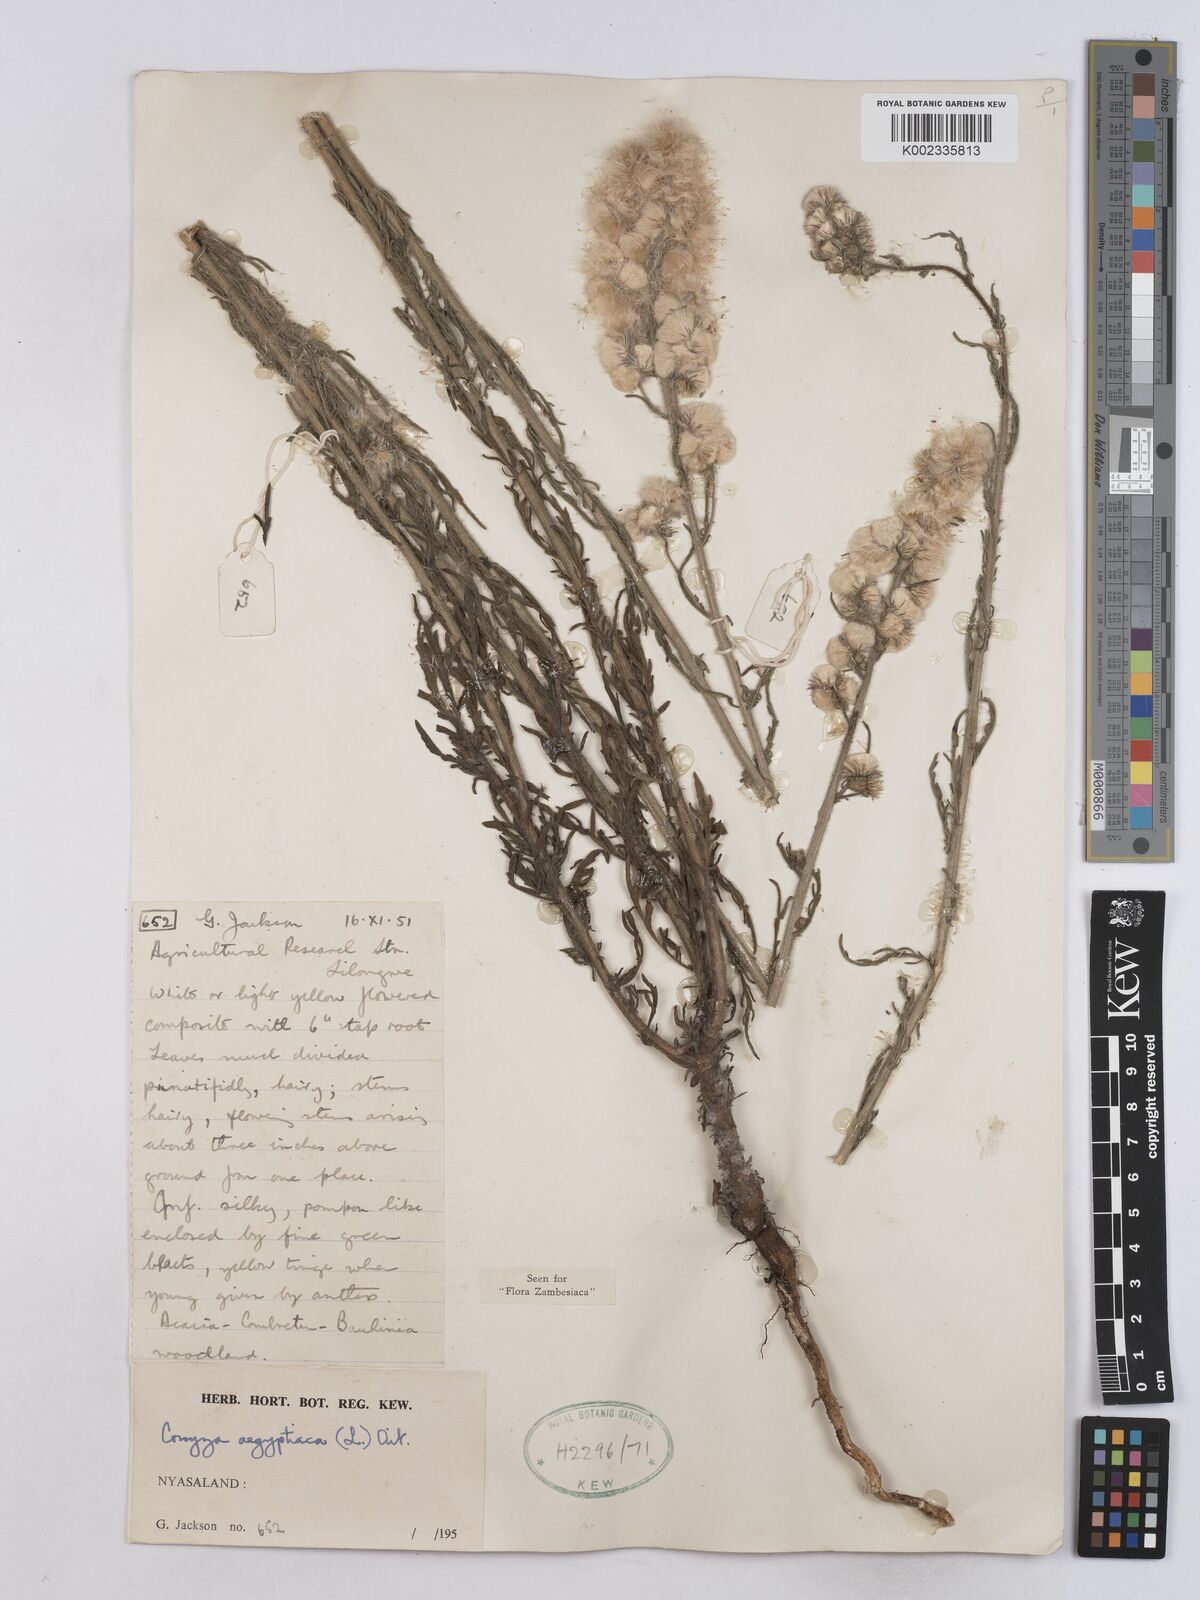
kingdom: Plantae
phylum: Tracheophyta
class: Magnoliopsida
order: Asterales
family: Asteraceae
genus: Nidorella
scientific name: Nidorella aegyptiaca
